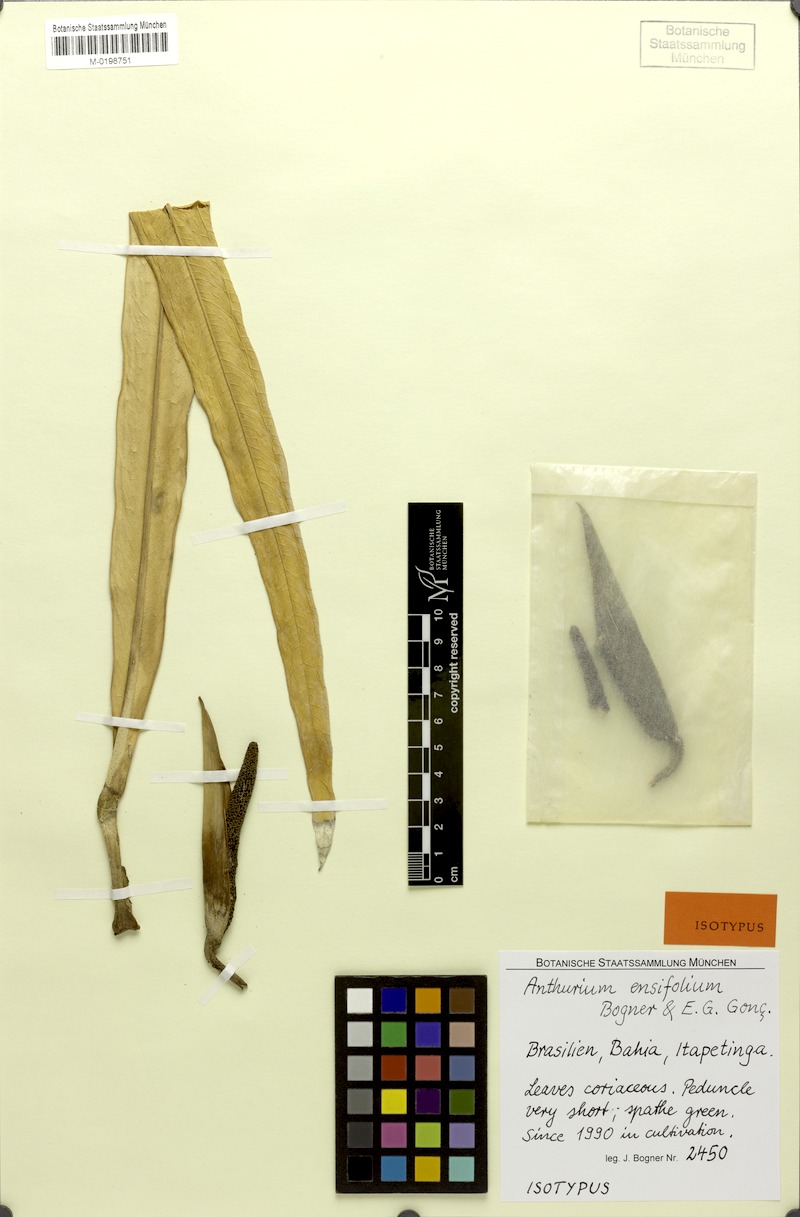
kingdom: Plantae
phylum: Tracheophyta
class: Liliopsida
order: Alismatales
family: Araceae
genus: Anthurium
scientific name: Anthurium ensifolium
